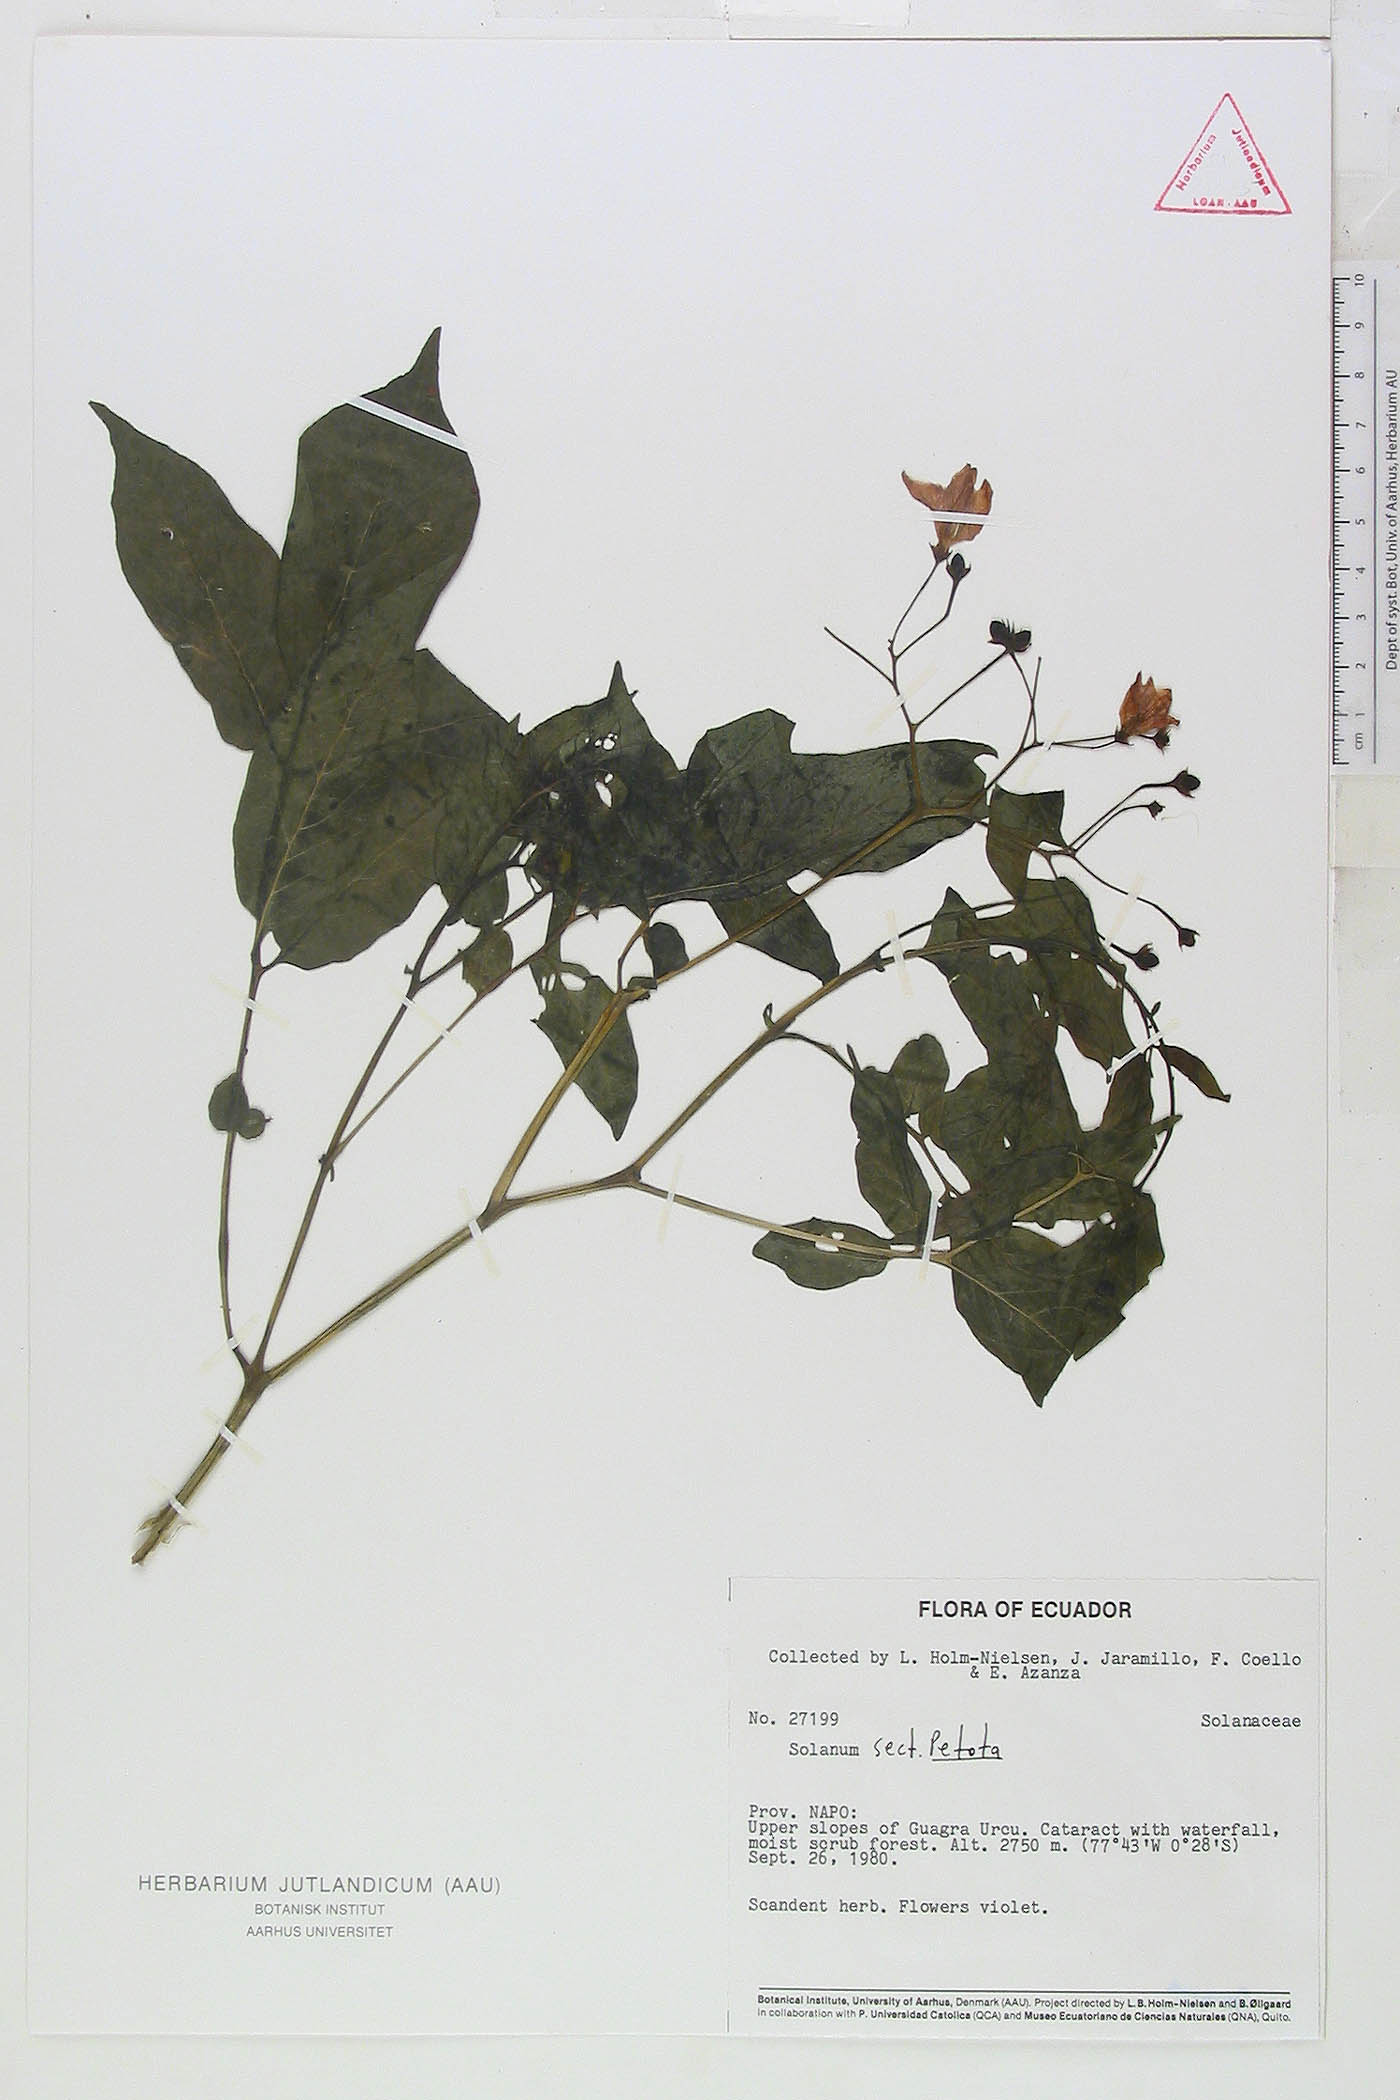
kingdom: Plantae
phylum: Tracheophyta
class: Magnoliopsida
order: Solanales
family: Solanaceae
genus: Solanum
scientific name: Solanum andreanum
